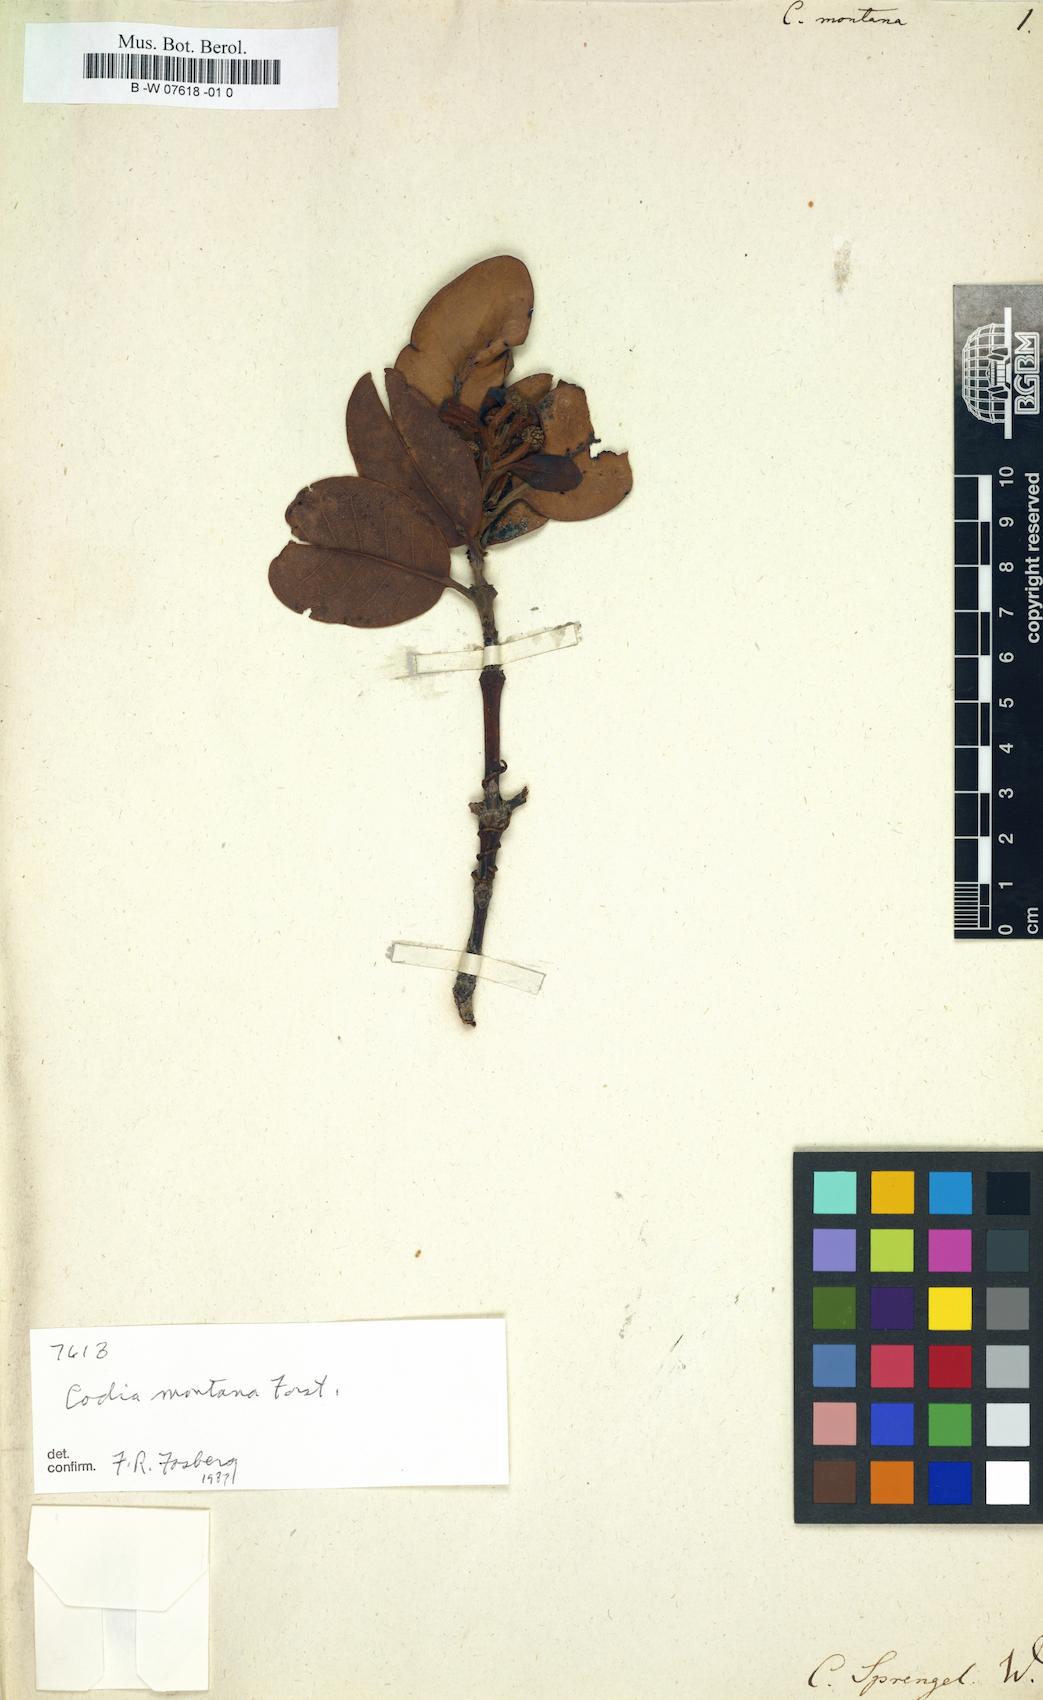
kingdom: Plantae
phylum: Tracheophyta
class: Magnoliopsida
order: Oxalidales
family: Cunoniaceae
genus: Codia
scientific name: Codia montana
